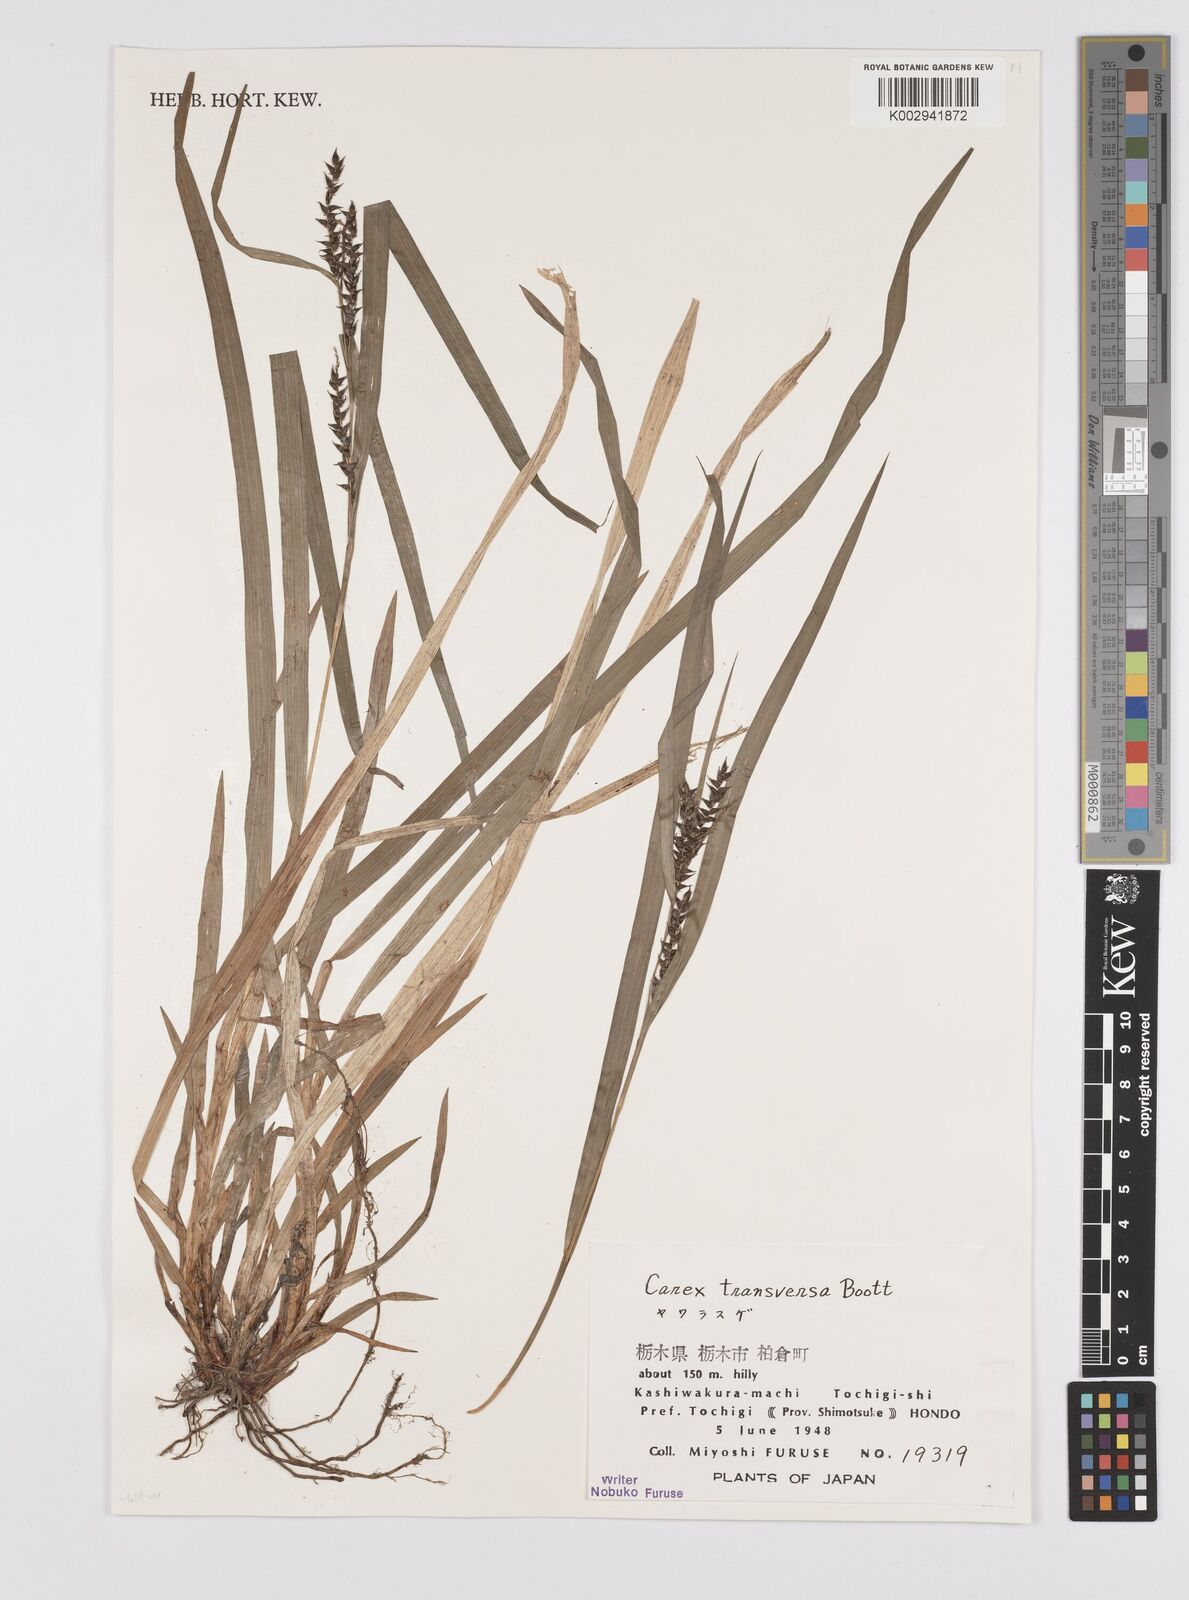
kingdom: Plantae
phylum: Tracheophyta
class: Liliopsida
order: Poales
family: Cyperaceae
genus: Carex
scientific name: Carex subtransversa
